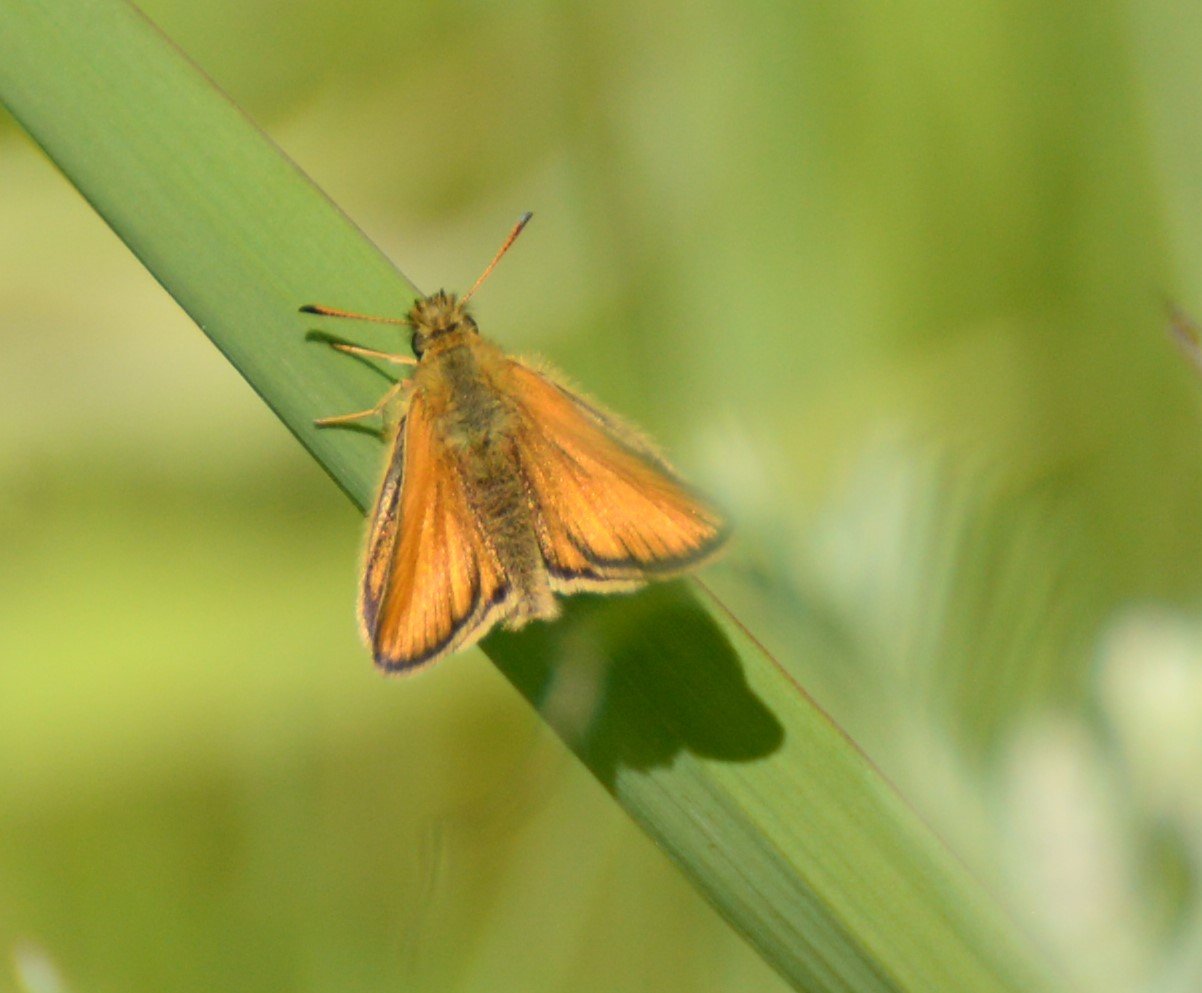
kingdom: Animalia
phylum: Arthropoda
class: Insecta
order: Lepidoptera
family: Hesperiidae
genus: Thymelicus
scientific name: Thymelicus lineola
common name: European Skipper
